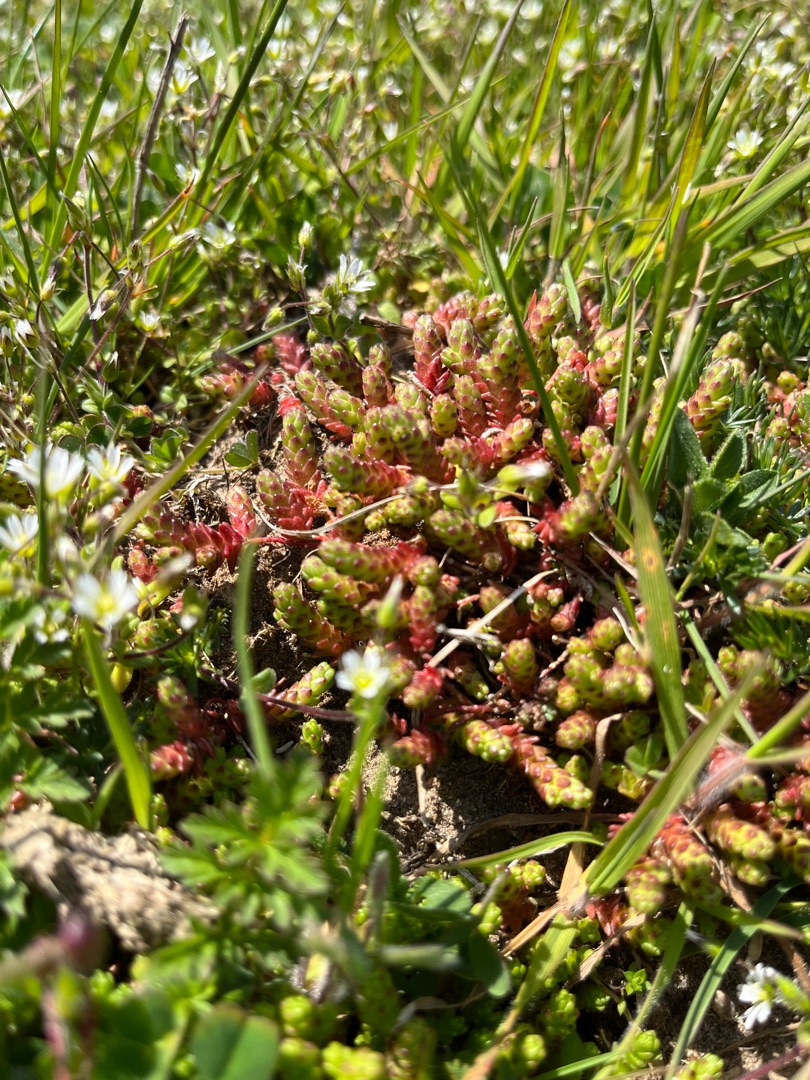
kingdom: Plantae
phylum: Tracheophyta
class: Magnoliopsida
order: Saxifragales
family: Crassulaceae
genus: Sedum
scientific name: Sedum acre
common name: Bidende stenurt
